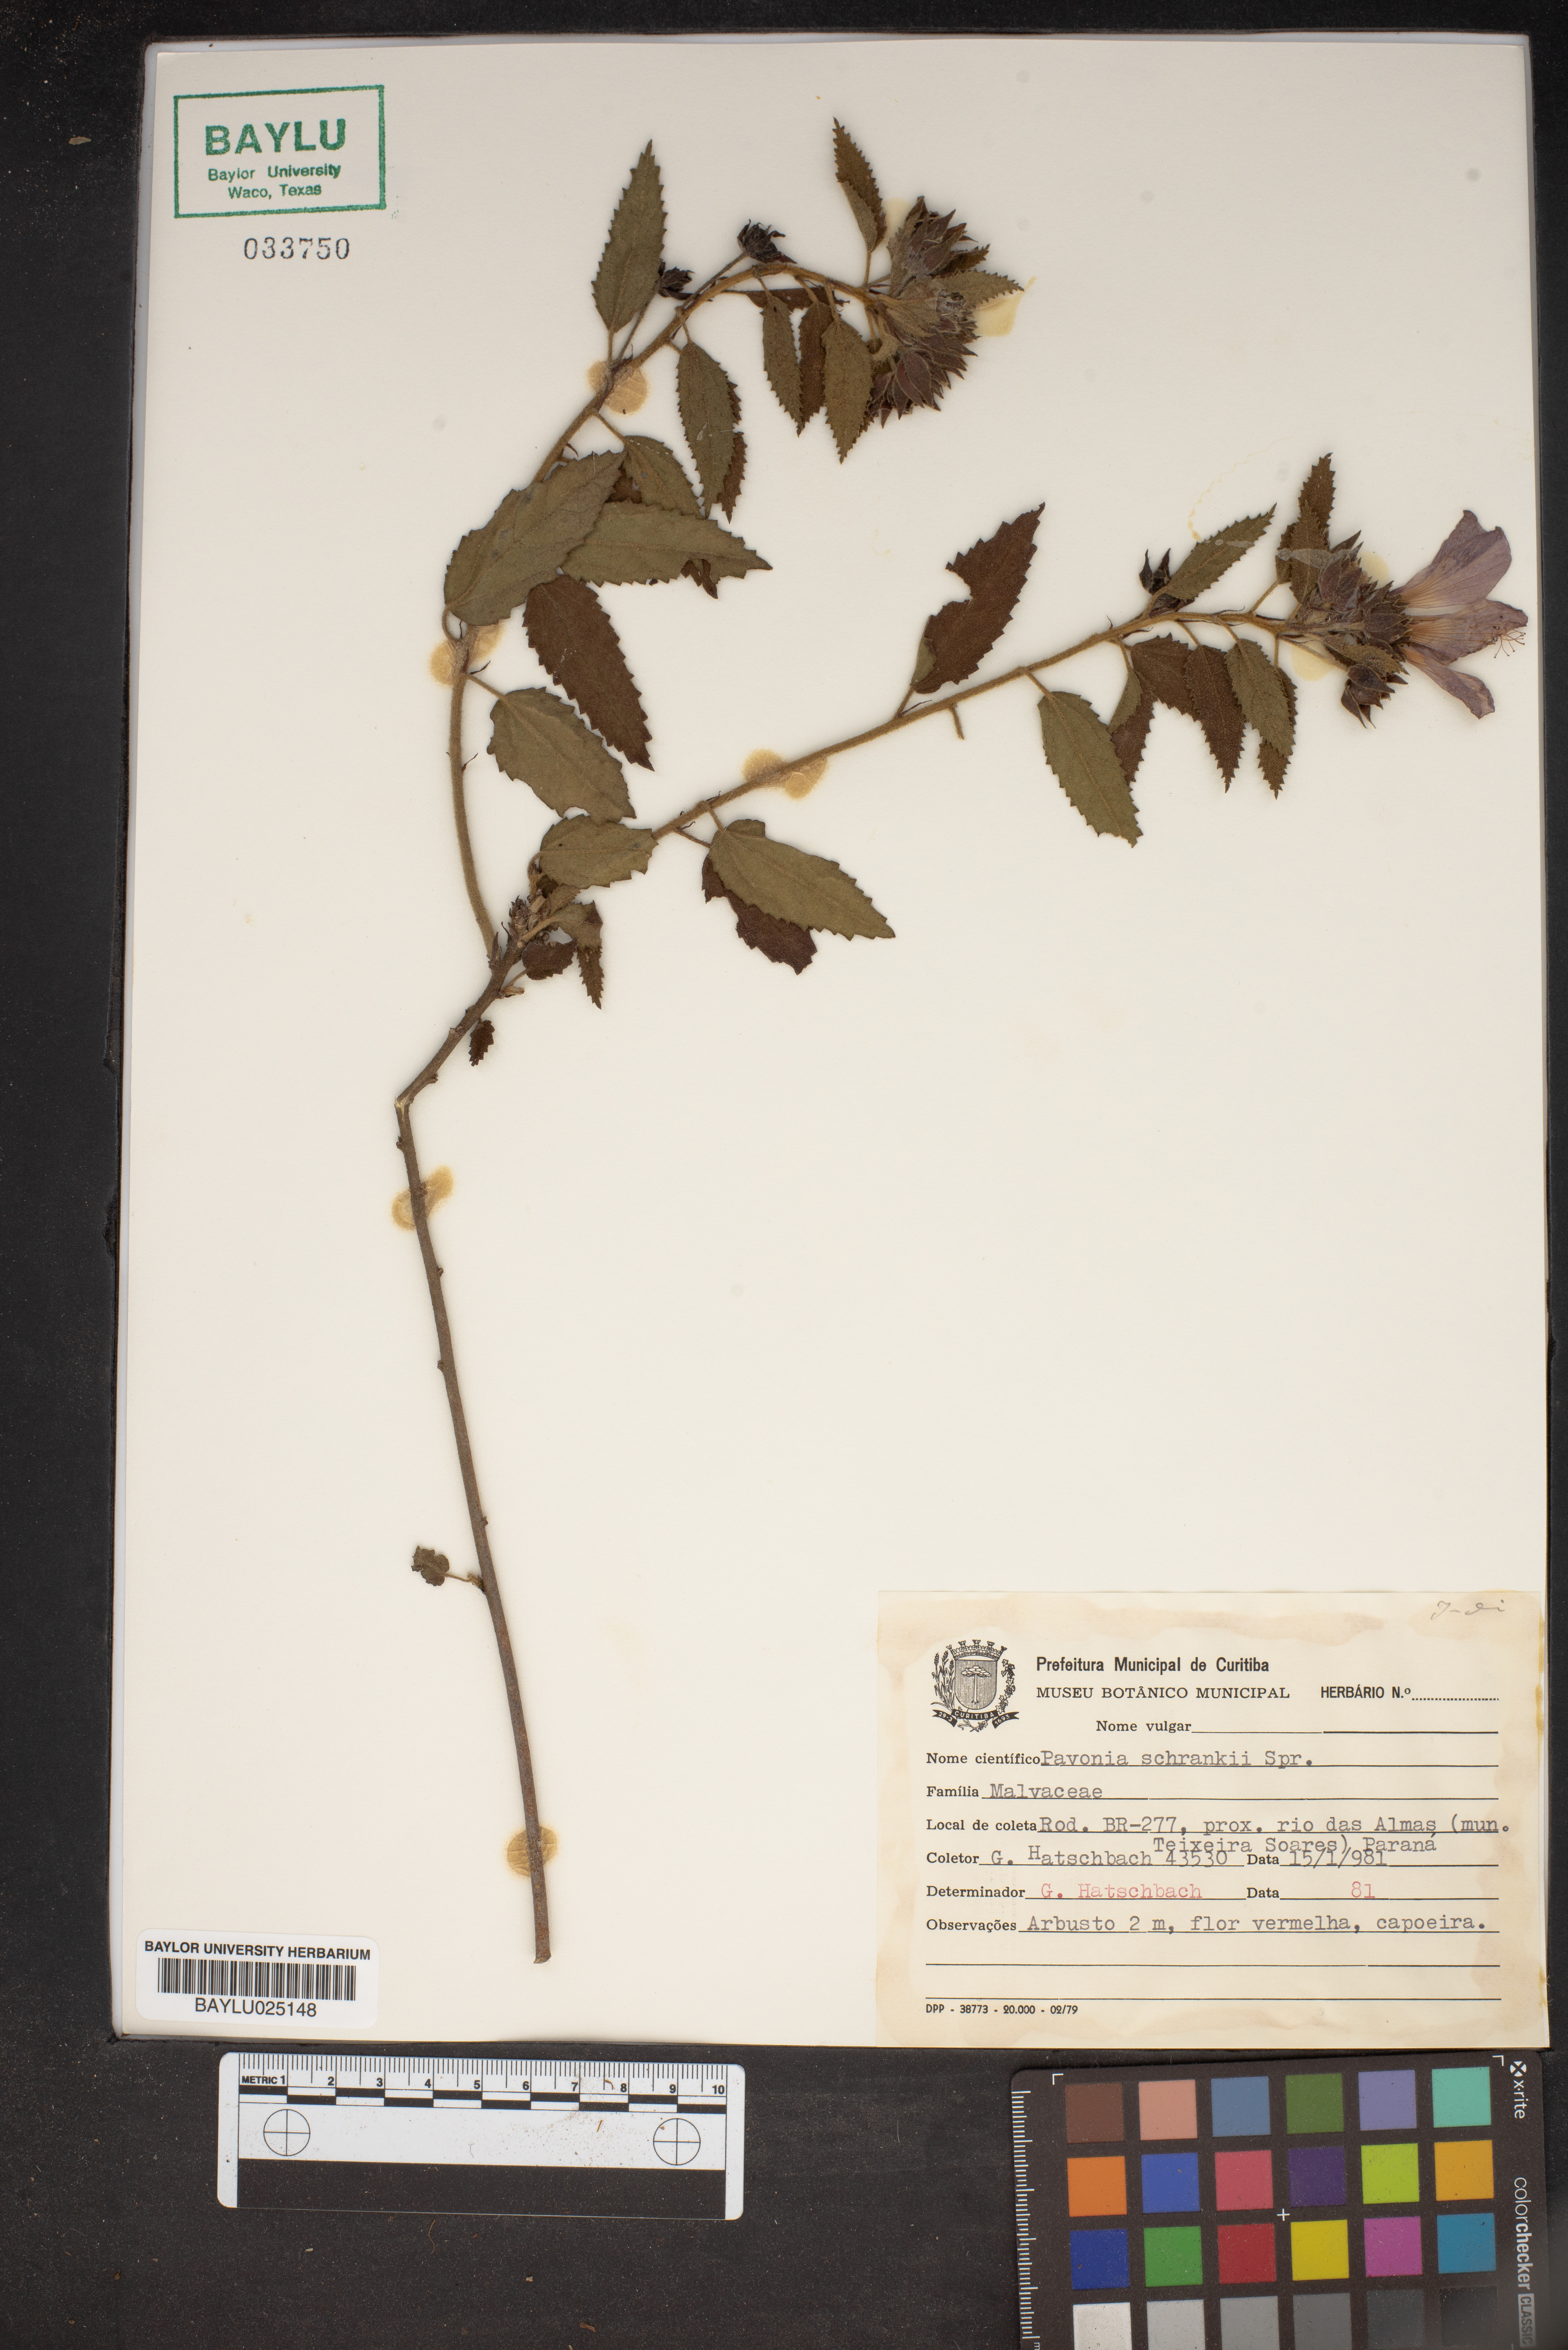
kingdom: Plantae
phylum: Tracheophyta
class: Magnoliopsida
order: Malvales
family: Malvaceae
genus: Pavonia
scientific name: Pavonia schrankii
